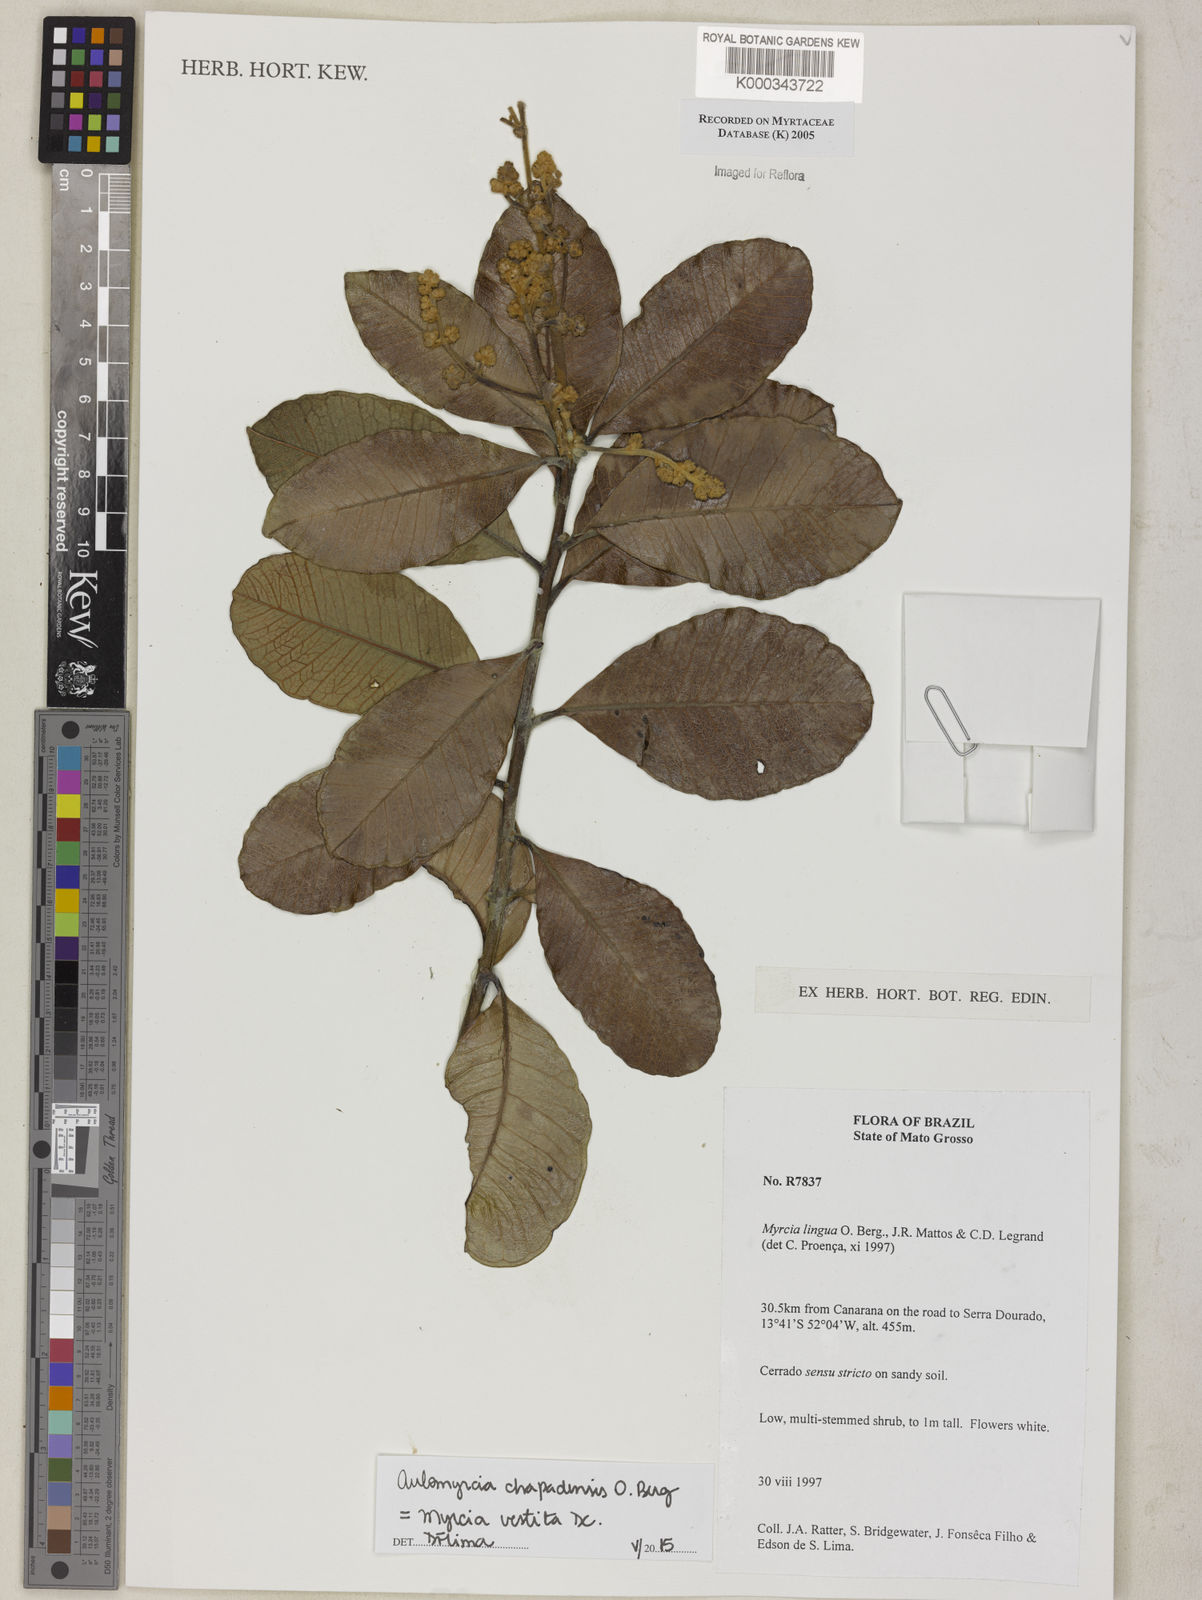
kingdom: Plantae
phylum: Tracheophyta
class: Magnoliopsida
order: Myrtales
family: Myrtaceae
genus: Myrcia
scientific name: Myrcia guianensis
